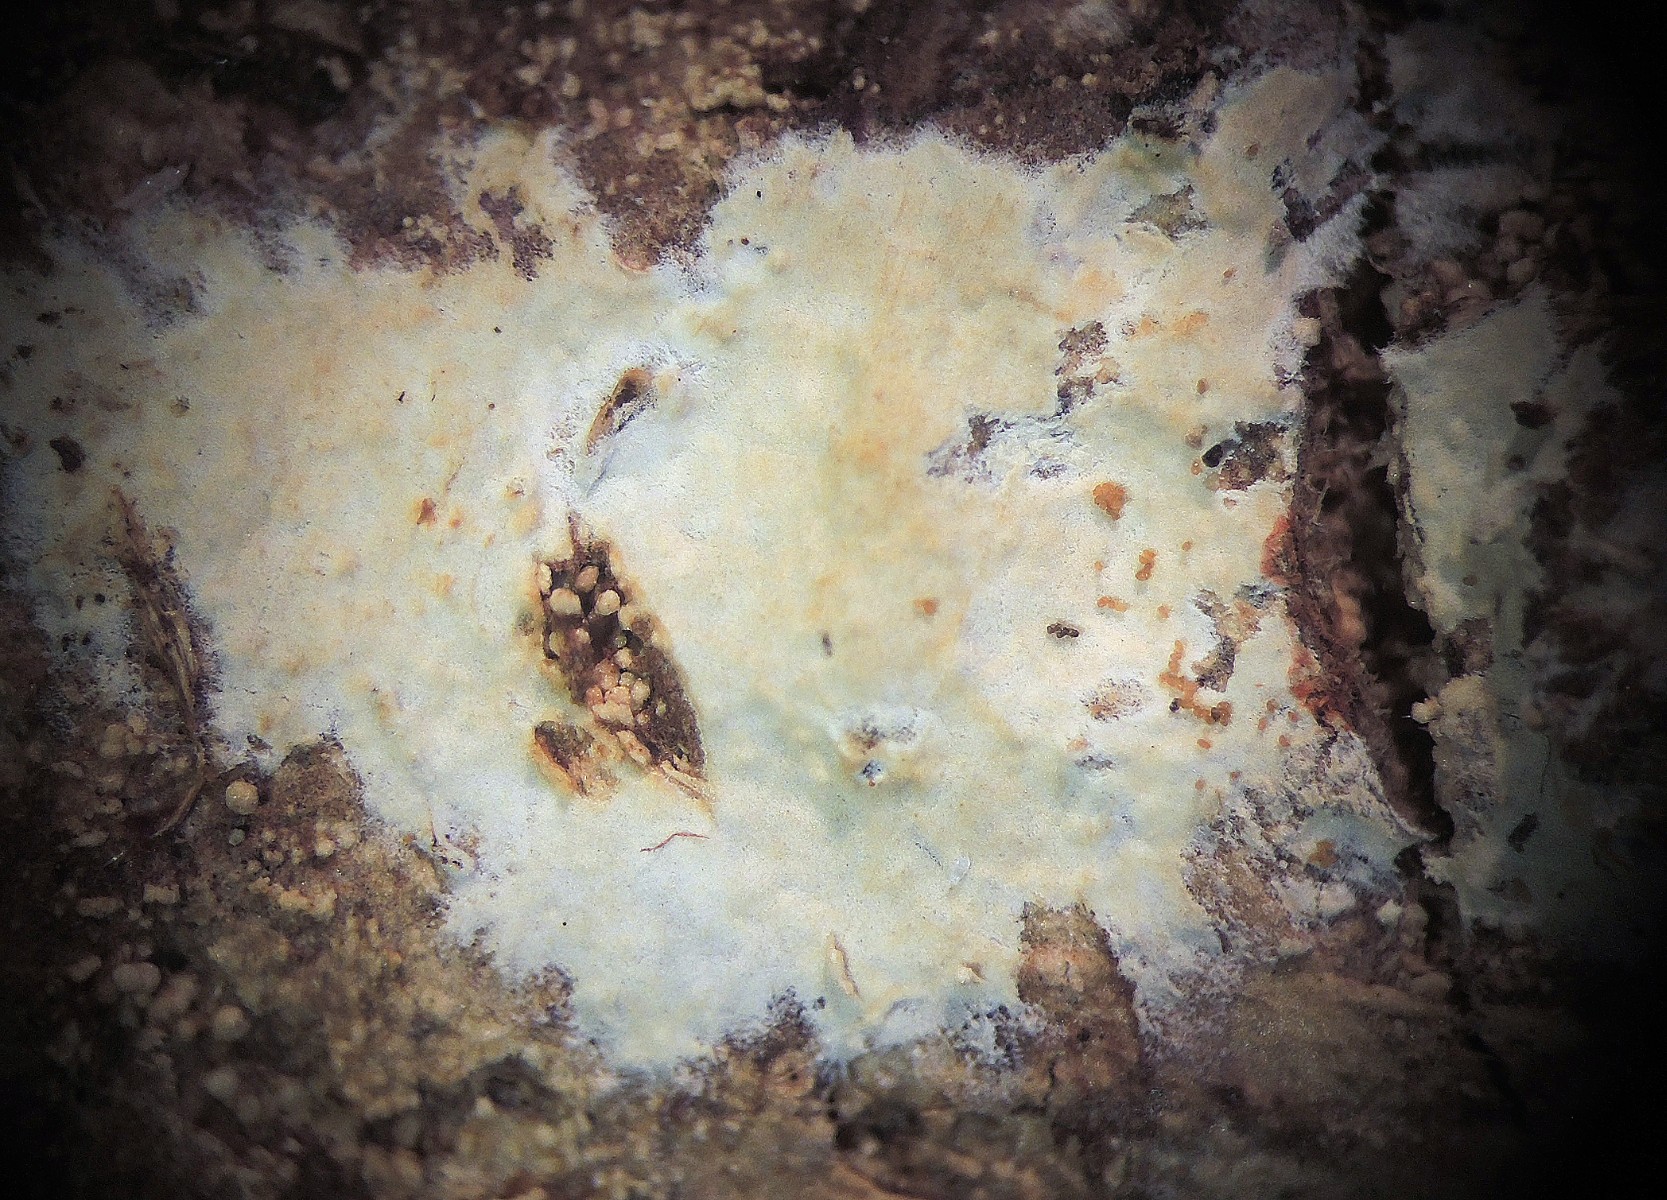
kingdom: Fungi
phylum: Basidiomycota
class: Agaricomycetes
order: Polyporales
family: Hyphodermataceae
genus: Hyphoderma
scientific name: Hyphoderma nemorale
